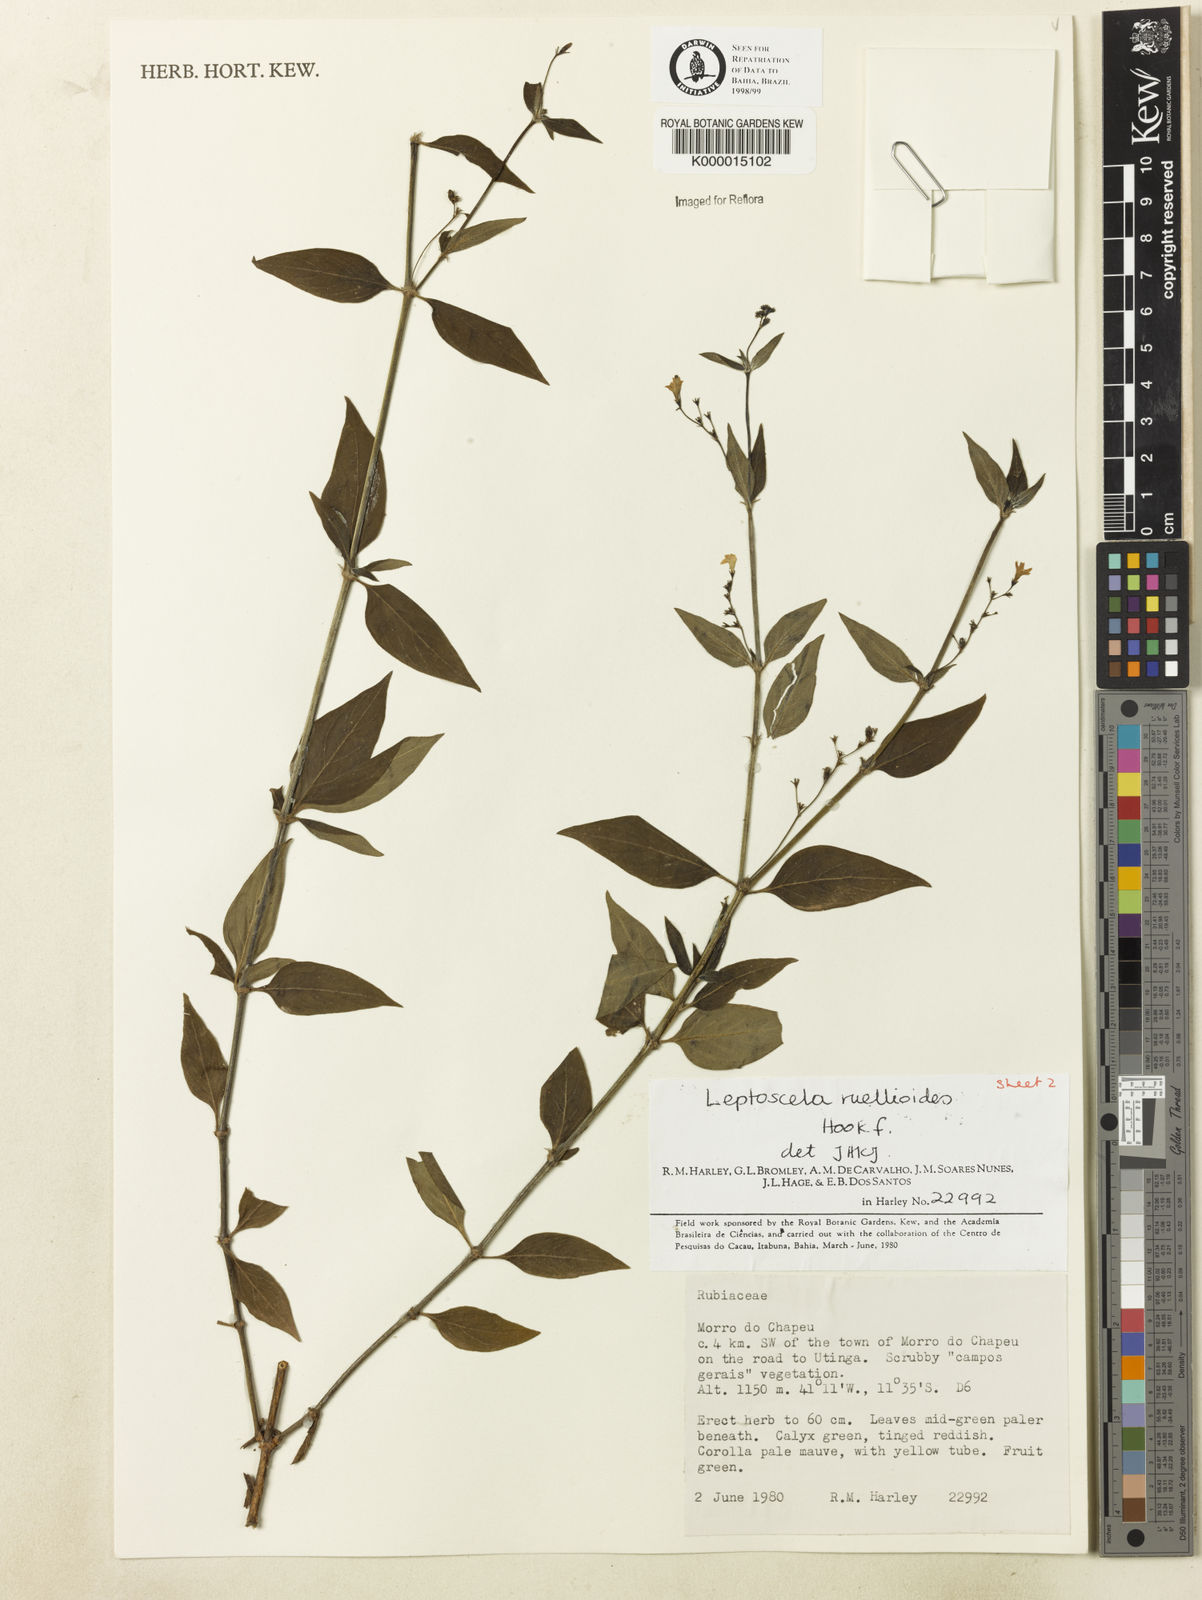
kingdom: Plantae
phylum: Tracheophyta
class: Magnoliopsida
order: Gentianales
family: Rubiaceae
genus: Leptoscela
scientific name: Leptoscela
